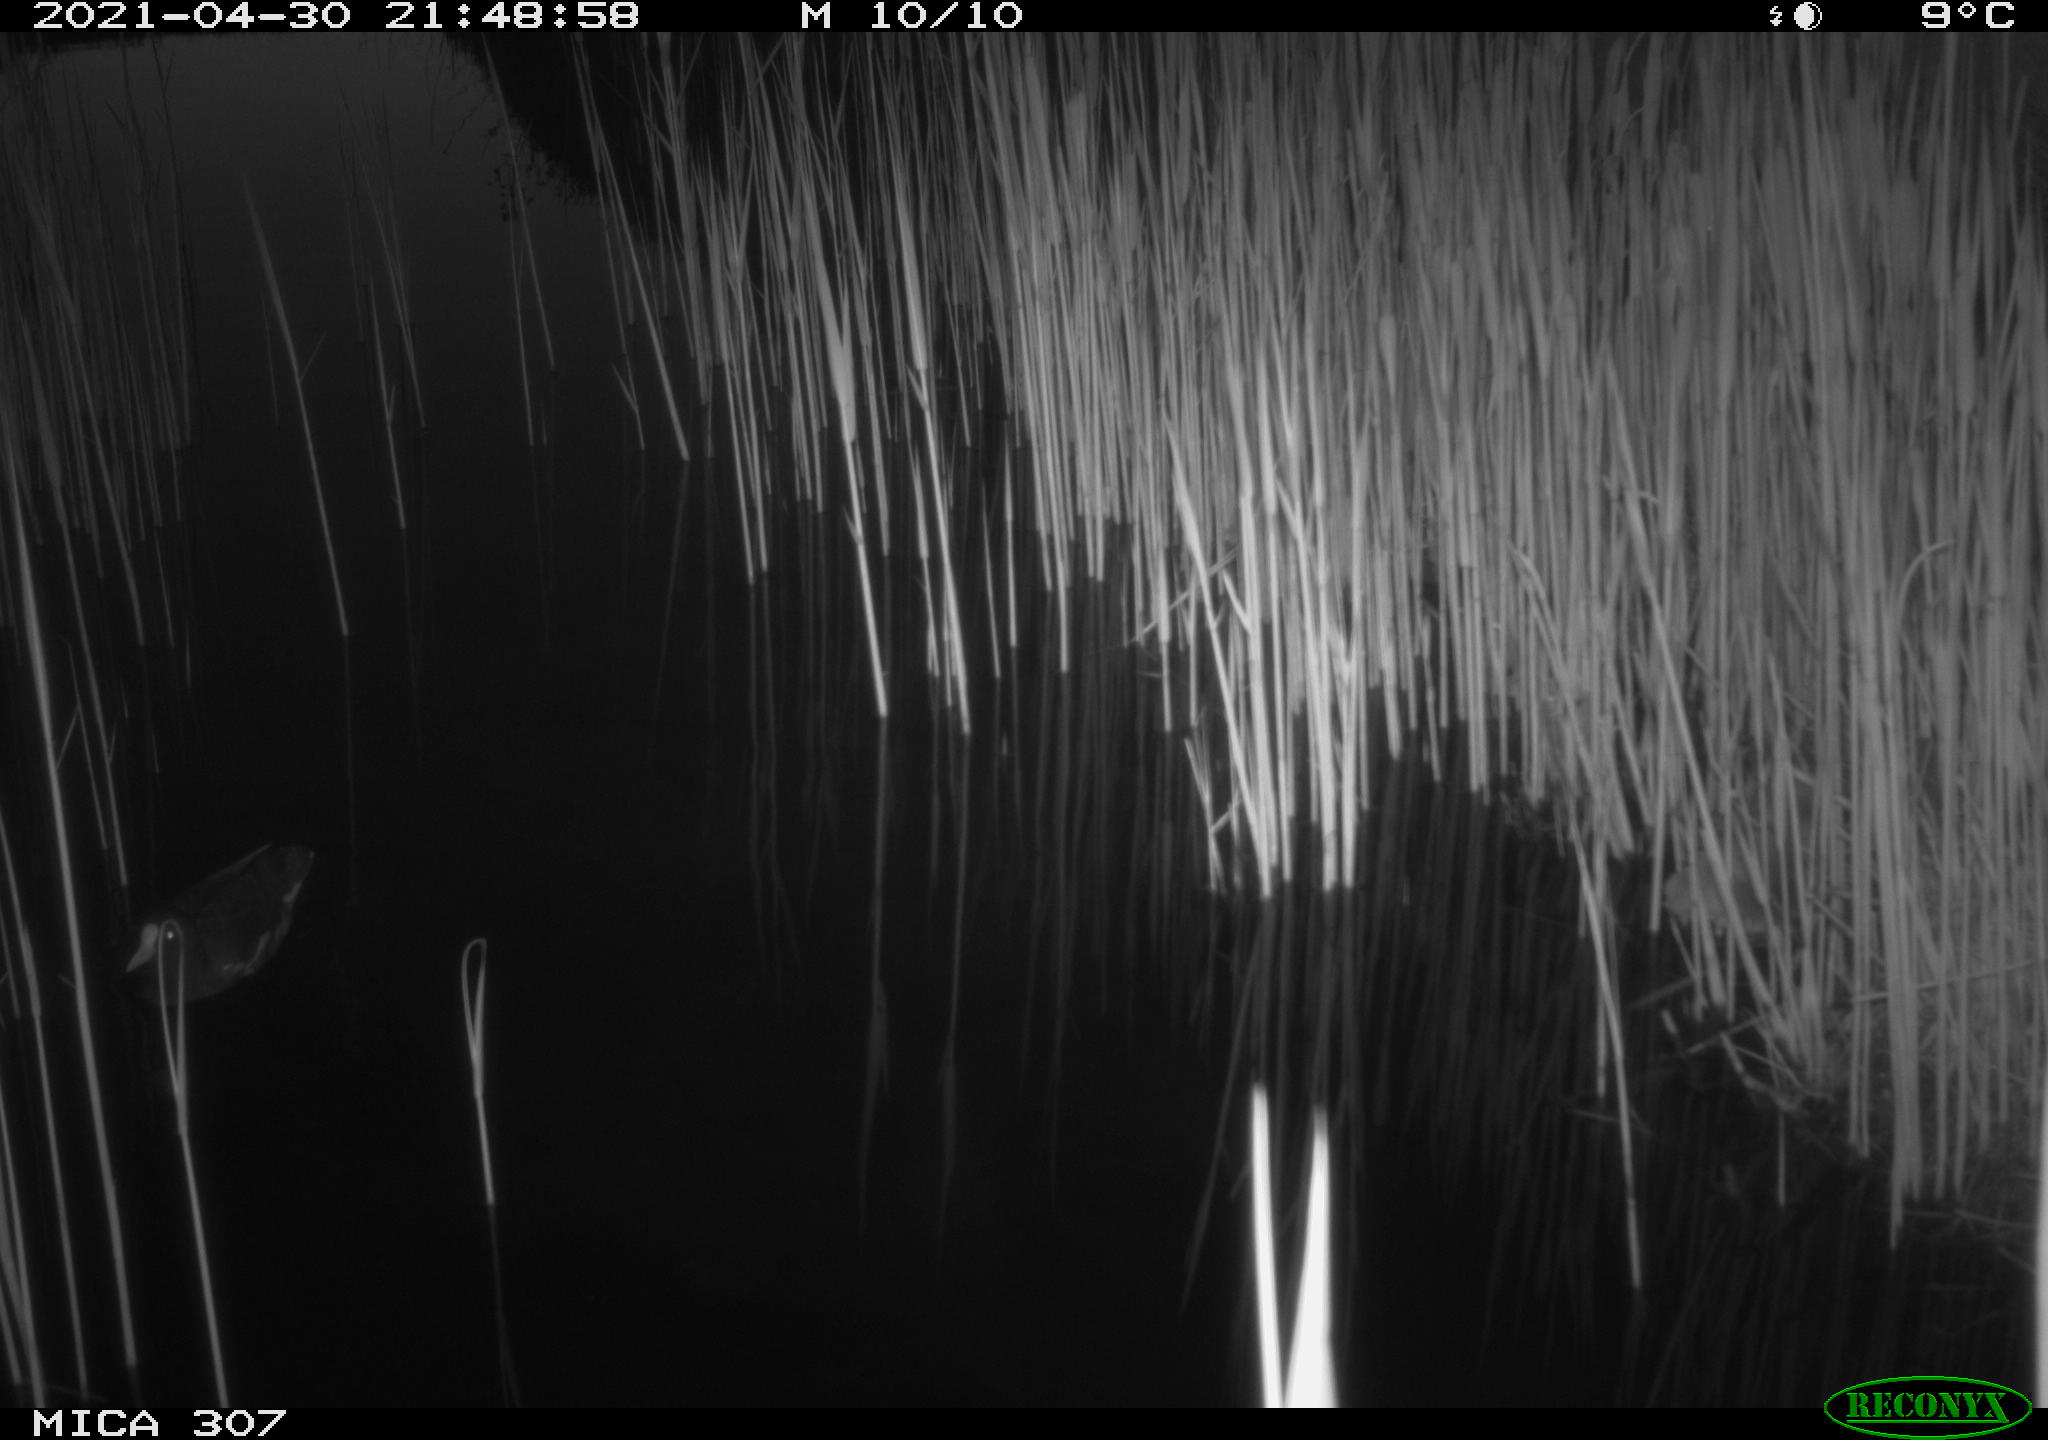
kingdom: Animalia
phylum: Chordata
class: Aves
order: Gruiformes
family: Rallidae
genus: Gallinula
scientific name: Gallinula chloropus
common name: Common moorhen
